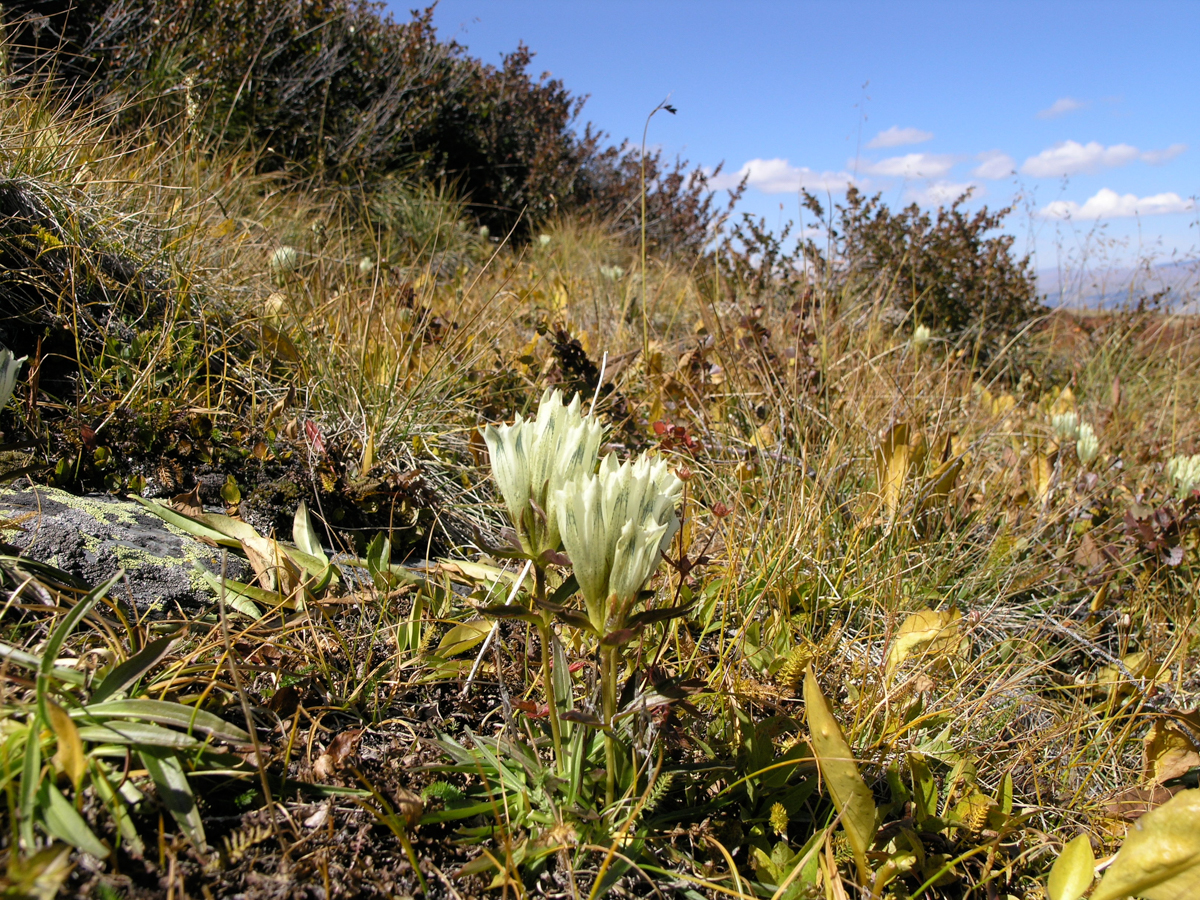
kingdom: Plantae
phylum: Tracheophyta
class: Magnoliopsida
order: Gentianales
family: Gentianaceae
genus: Gentiana
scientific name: Gentiana algida
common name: Arctic gentian
